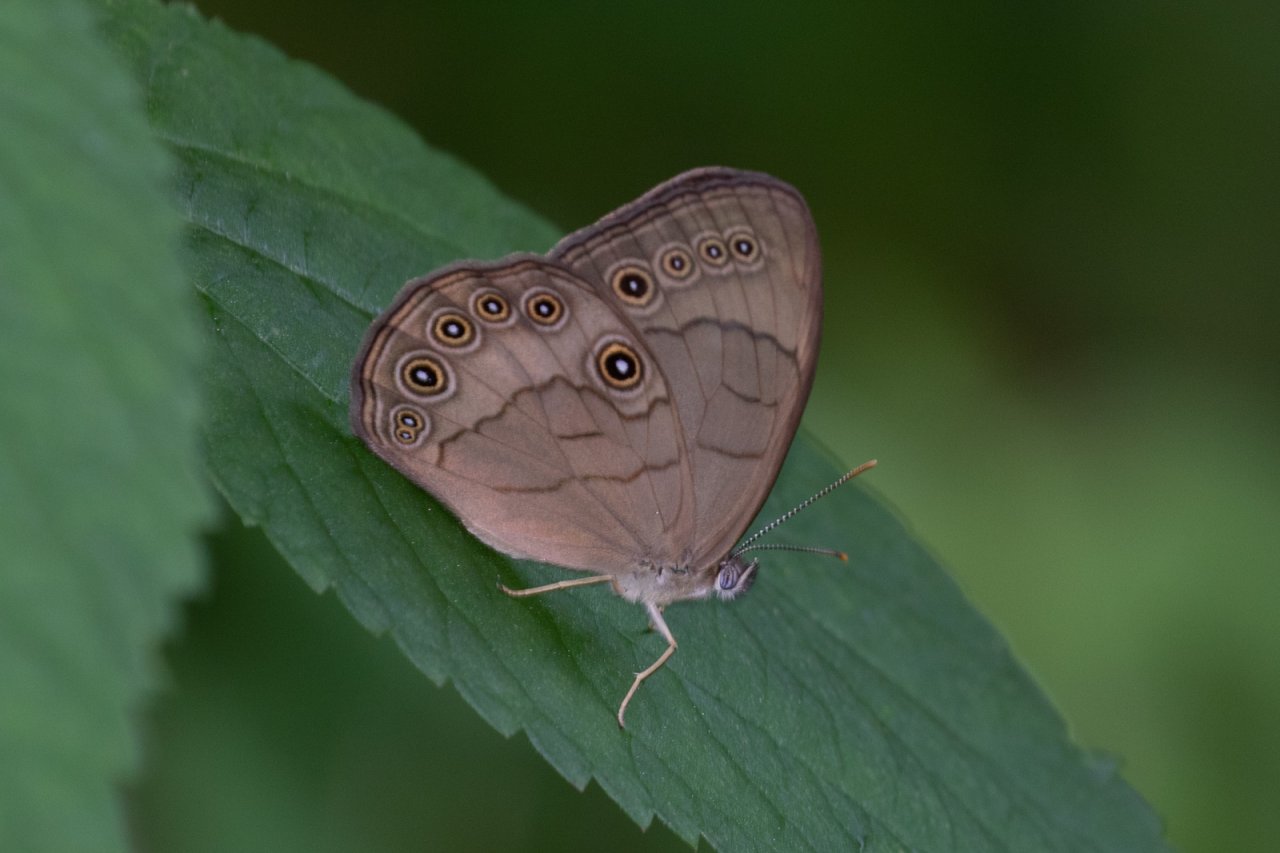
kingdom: Animalia
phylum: Arthropoda
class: Insecta
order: Lepidoptera
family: Nymphalidae
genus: Lethe
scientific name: Lethe eurydice
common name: Appalachian Eyed Brown
